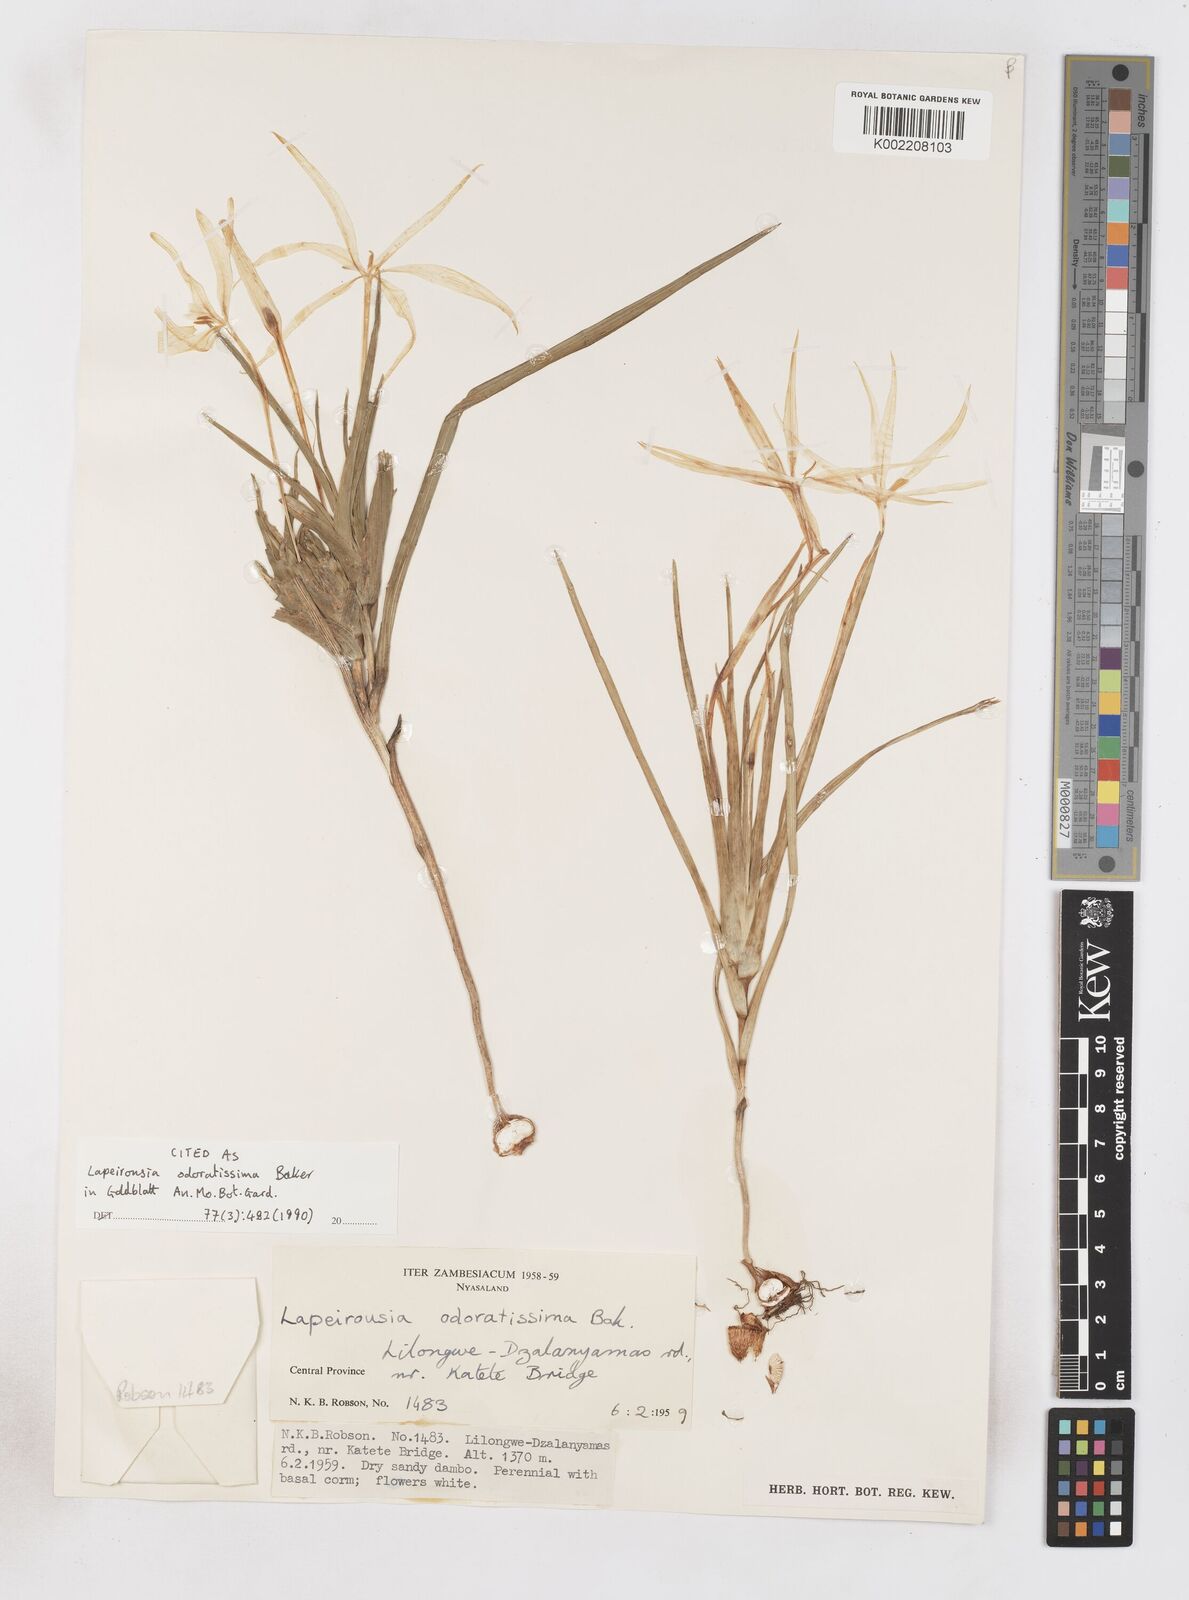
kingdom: Plantae
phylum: Tracheophyta
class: Liliopsida
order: Asparagales
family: Iridaceae
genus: Lapeirousia
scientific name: Lapeirousia odoratissima
